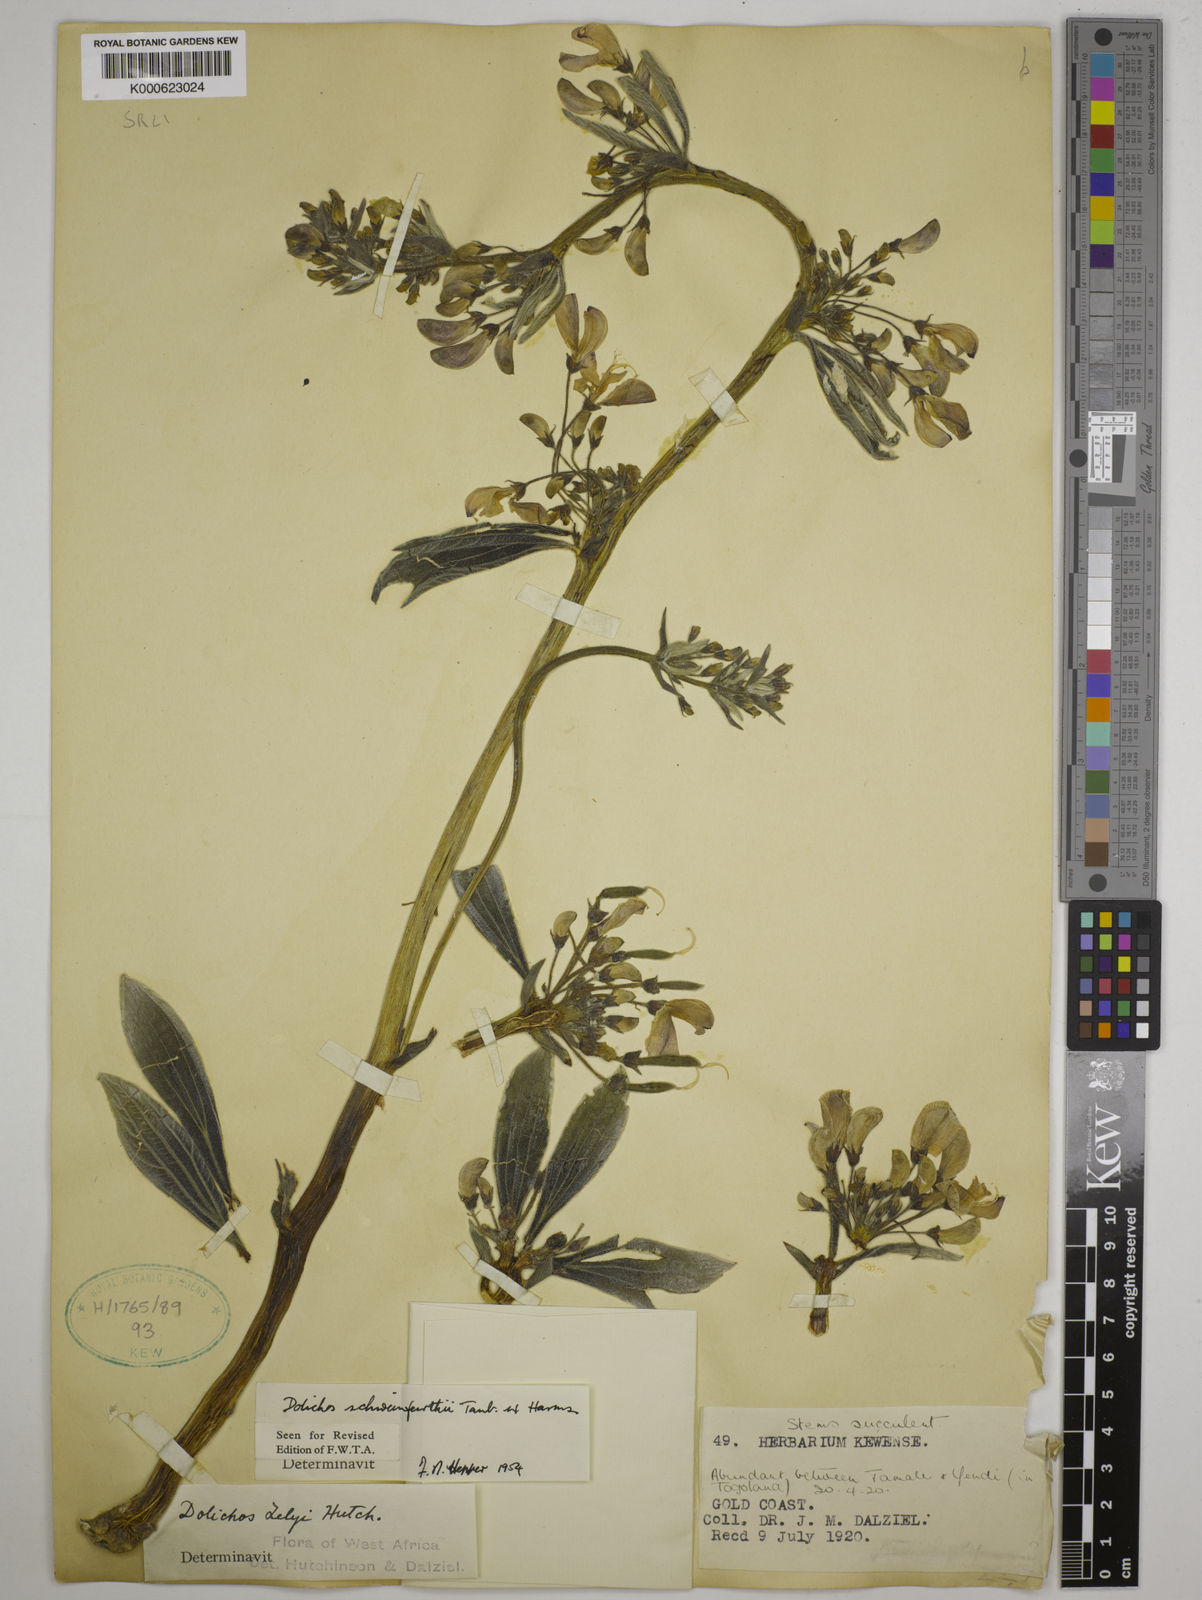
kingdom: Plantae
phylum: Tracheophyta
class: Magnoliopsida
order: Fabales
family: Fabaceae
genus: Dolichos
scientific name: Dolichos
